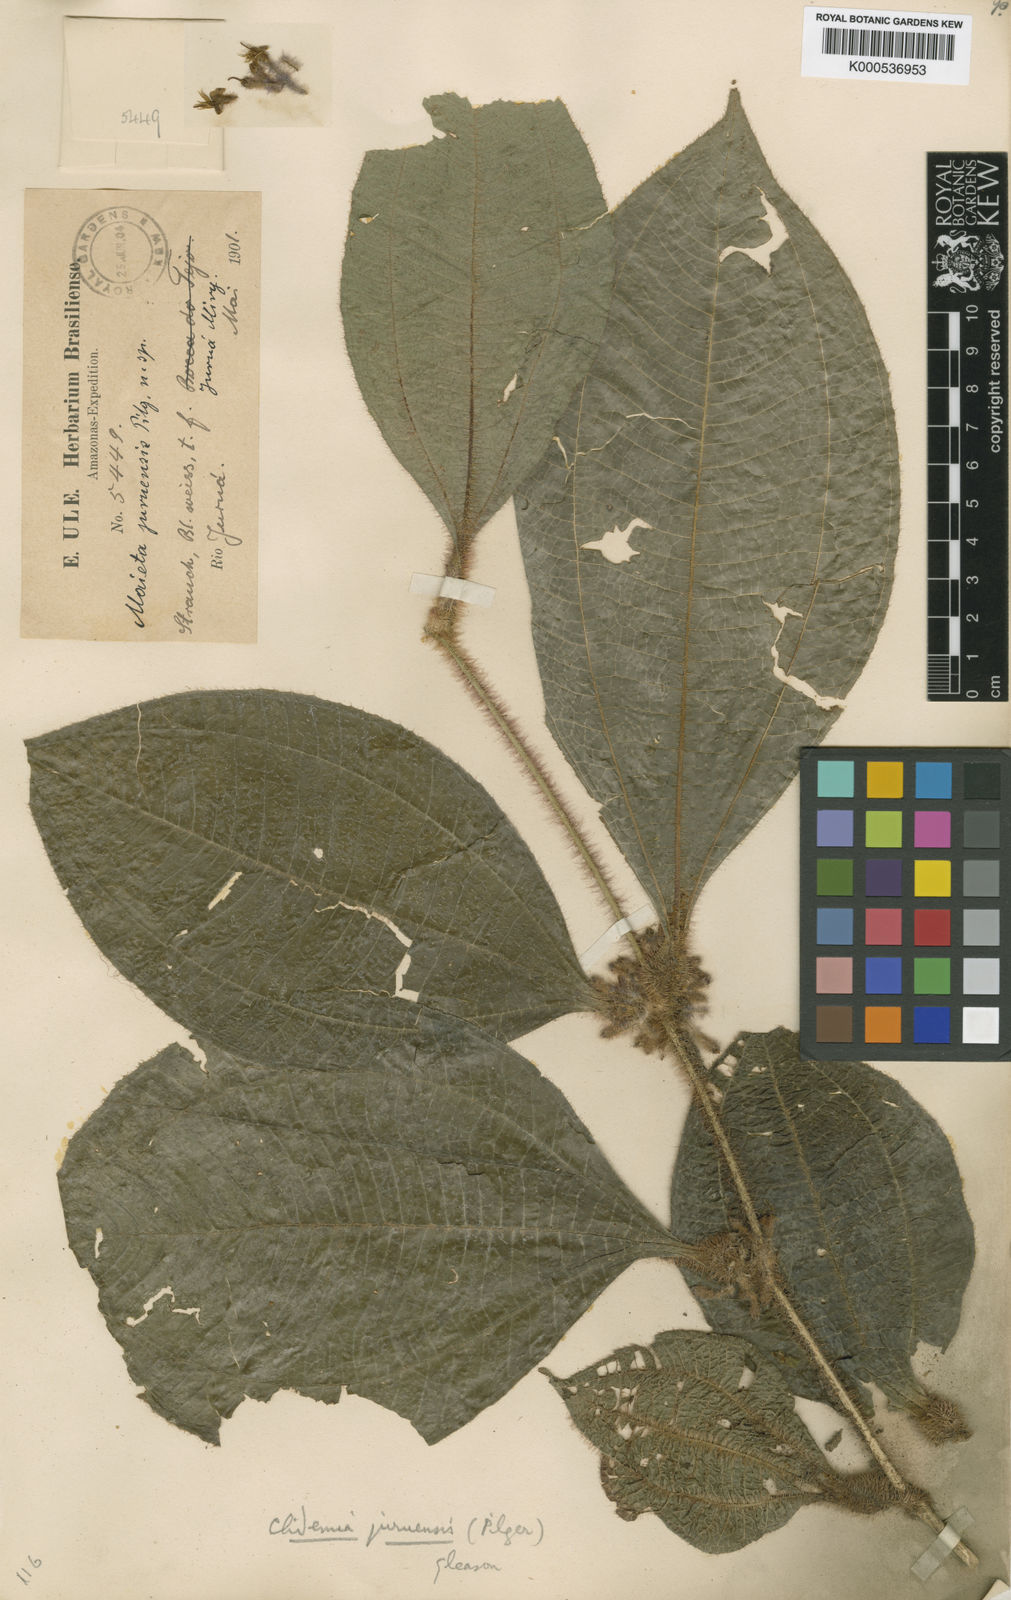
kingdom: Plantae
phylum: Tracheophyta
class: Magnoliopsida
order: Myrtales
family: Melastomataceae
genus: Miconia
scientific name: Miconia formicojuruensis
